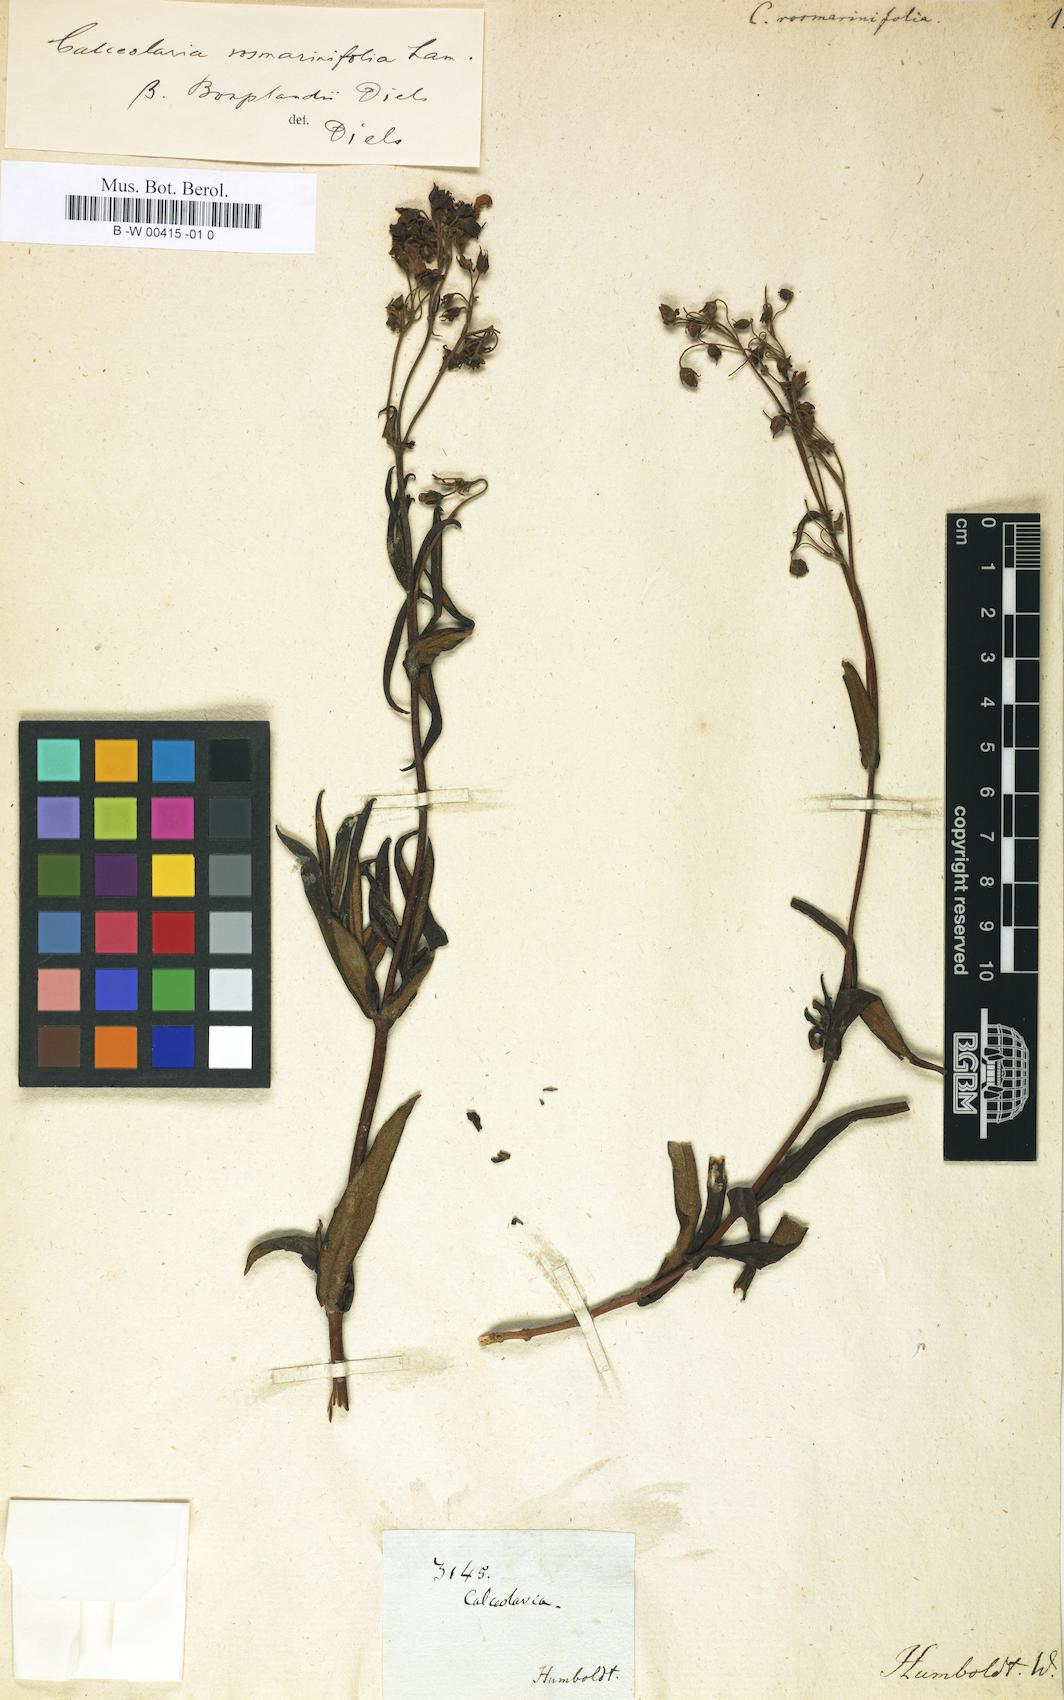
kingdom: Plantae
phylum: Tracheophyta
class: Magnoliopsida
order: Lamiales
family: Calceolariaceae
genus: Calceolaria
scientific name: Calceolaria rosmarinifolia
